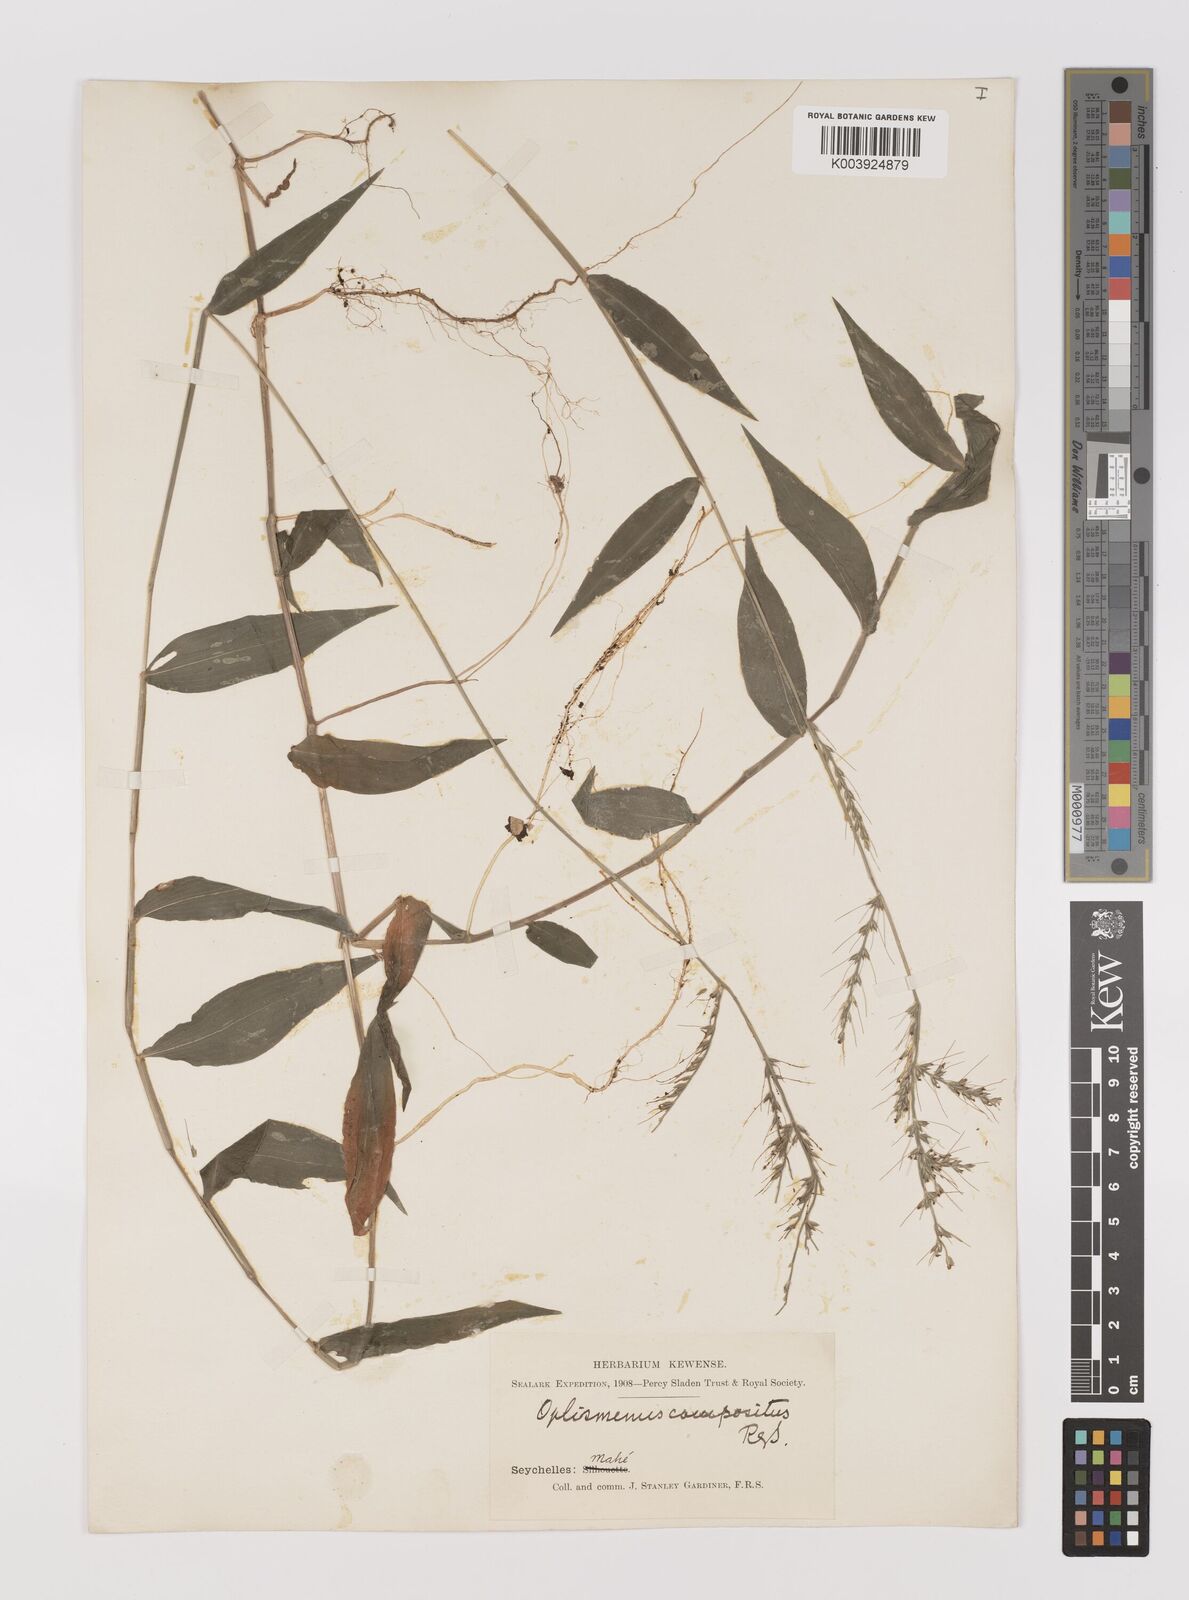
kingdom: Plantae
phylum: Tracheophyta
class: Liliopsida
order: Poales
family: Poaceae
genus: Oplismenus
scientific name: Oplismenus compositus
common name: Running mountain grass
